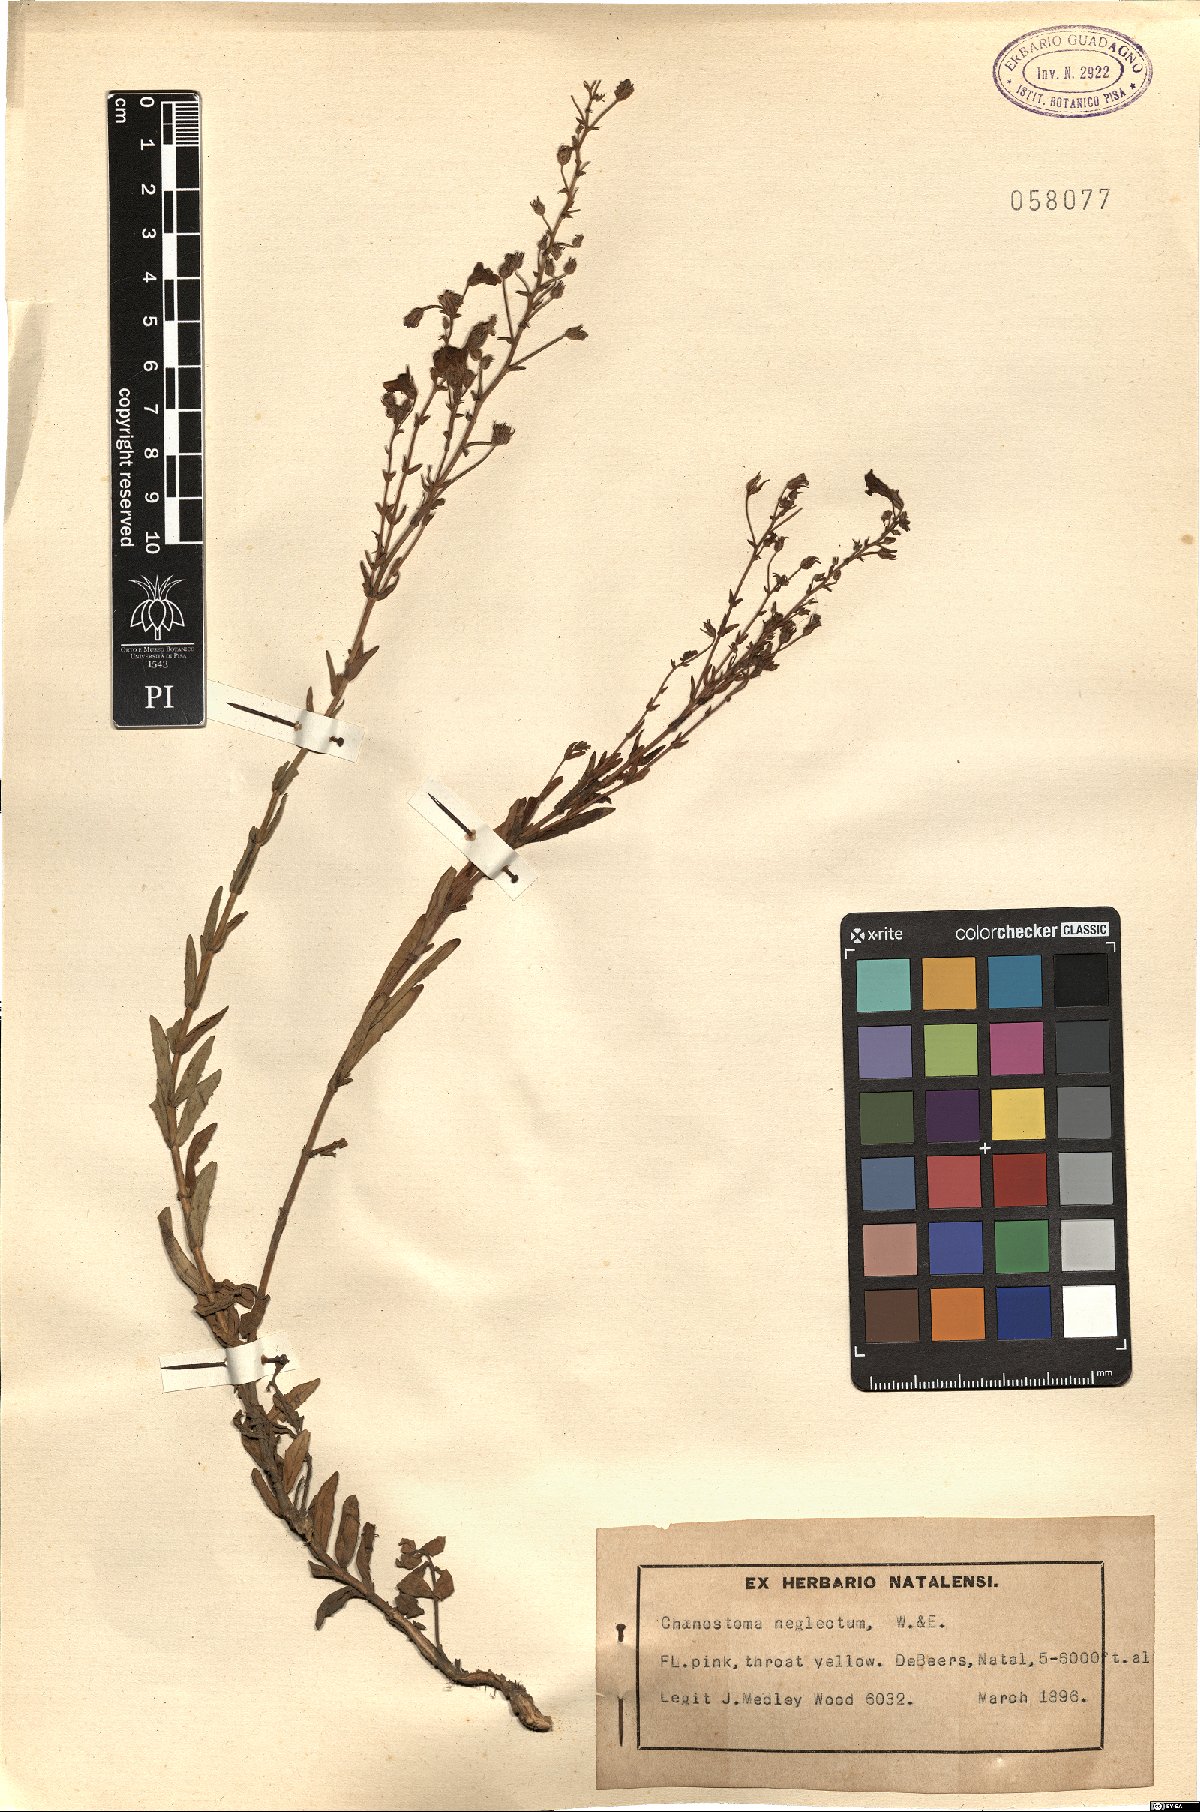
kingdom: Plantae
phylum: Tracheophyta
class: Magnoliopsida
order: Lamiales
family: Scrophulariaceae
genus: Chaenostoma
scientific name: Chaenostoma neglectum
